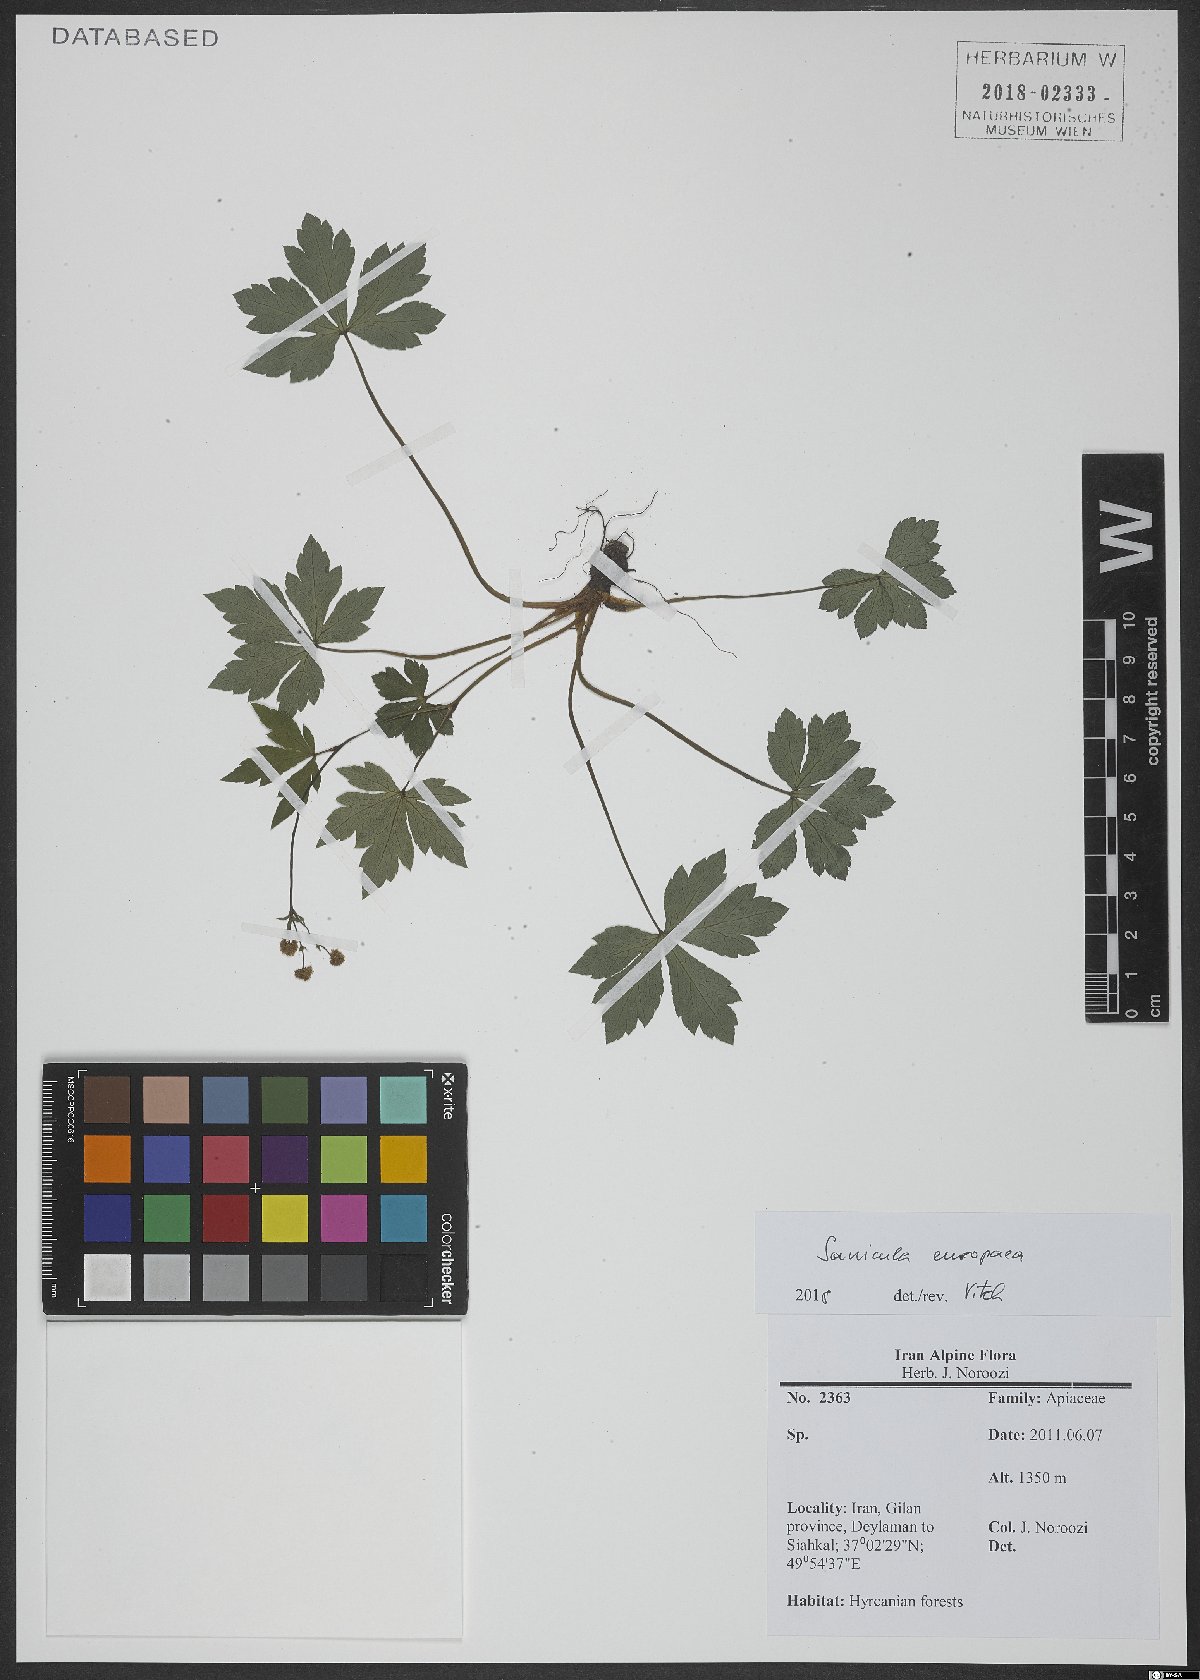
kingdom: Plantae
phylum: Tracheophyta
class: Magnoliopsida
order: Apiales
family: Apiaceae
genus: Sanicula
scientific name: Sanicula europaea
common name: Sanicle
